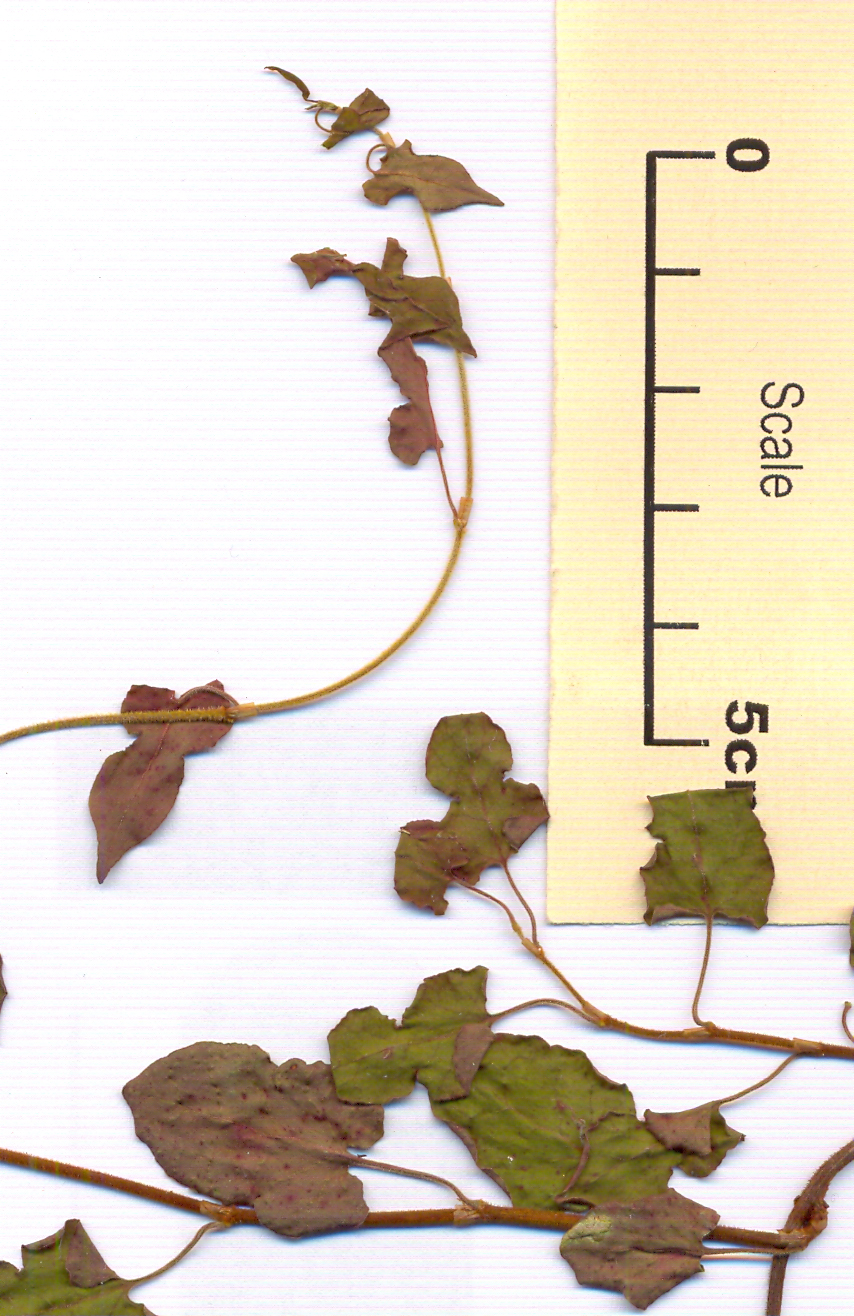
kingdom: Plantae
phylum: Tracheophyta
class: Magnoliopsida
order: Caryophyllales
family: Polygonaceae
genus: Muehlenbeckia
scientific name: Muehlenbeckia complexa
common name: Wireplant
